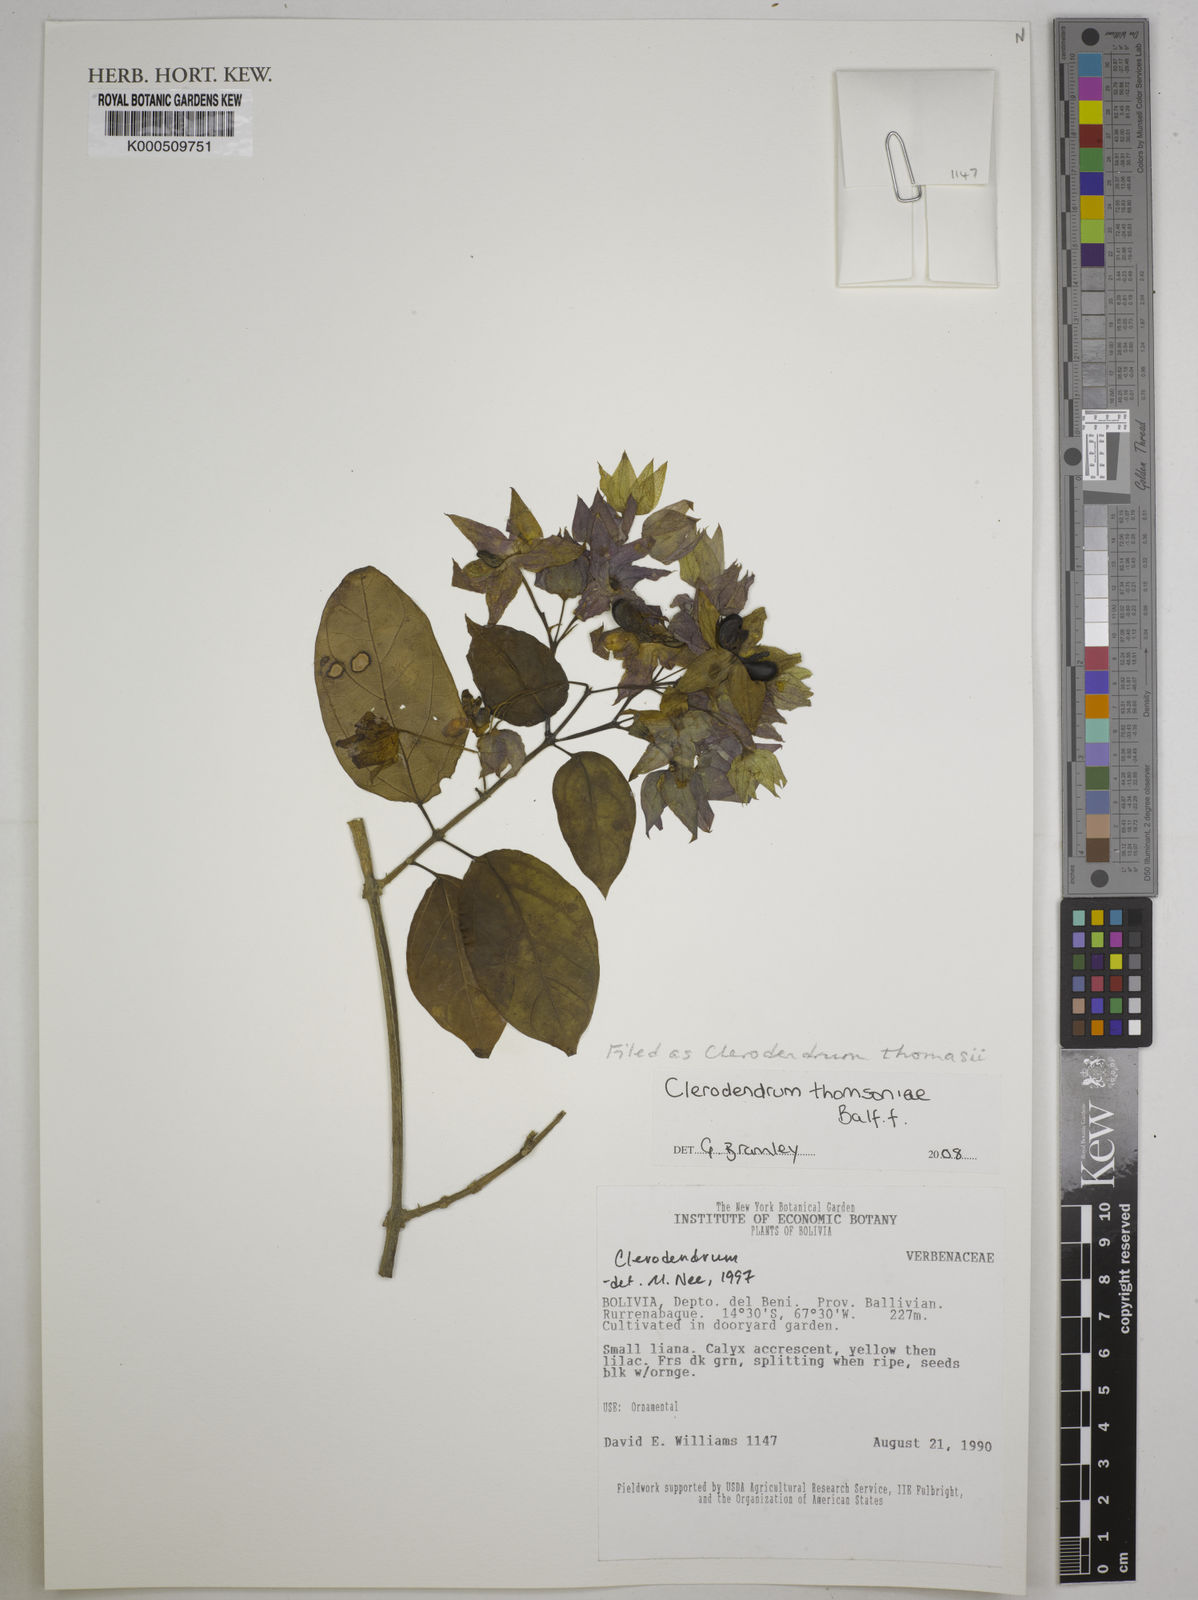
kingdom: Plantae
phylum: Tracheophyta
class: Magnoliopsida
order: Lamiales
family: Lamiaceae
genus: Clerodendrum
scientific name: Clerodendrum thomsoniae
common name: Bagflower
